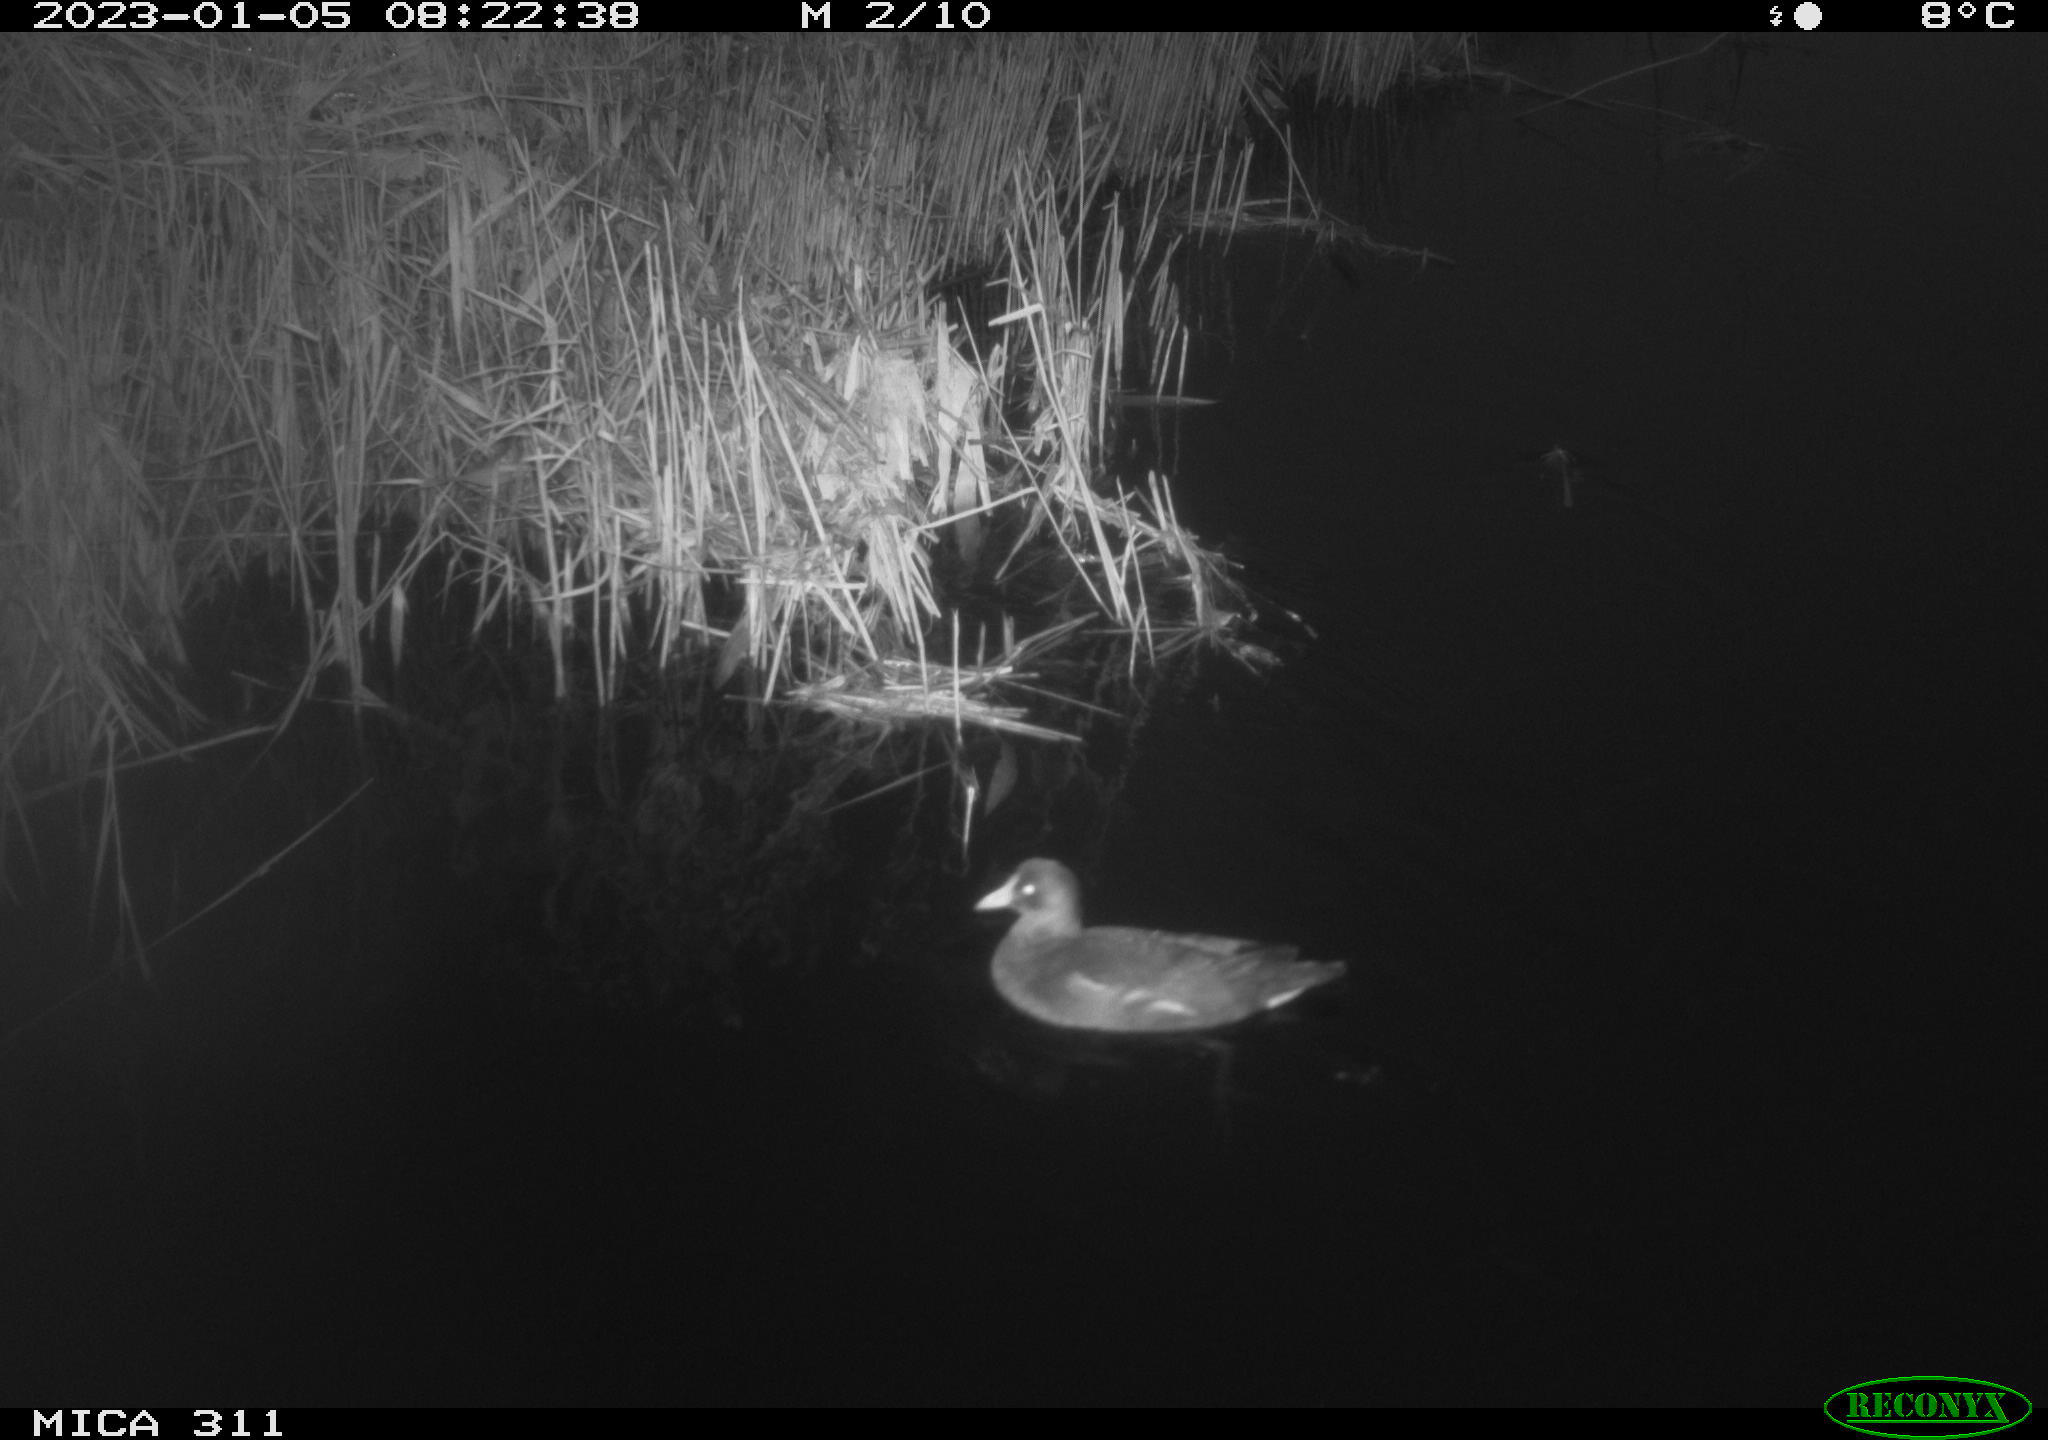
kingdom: Animalia
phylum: Chordata
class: Aves
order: Gruiformes
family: Rallidae
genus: Gallinula
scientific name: Gallinula chloropus
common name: Common moorhen
